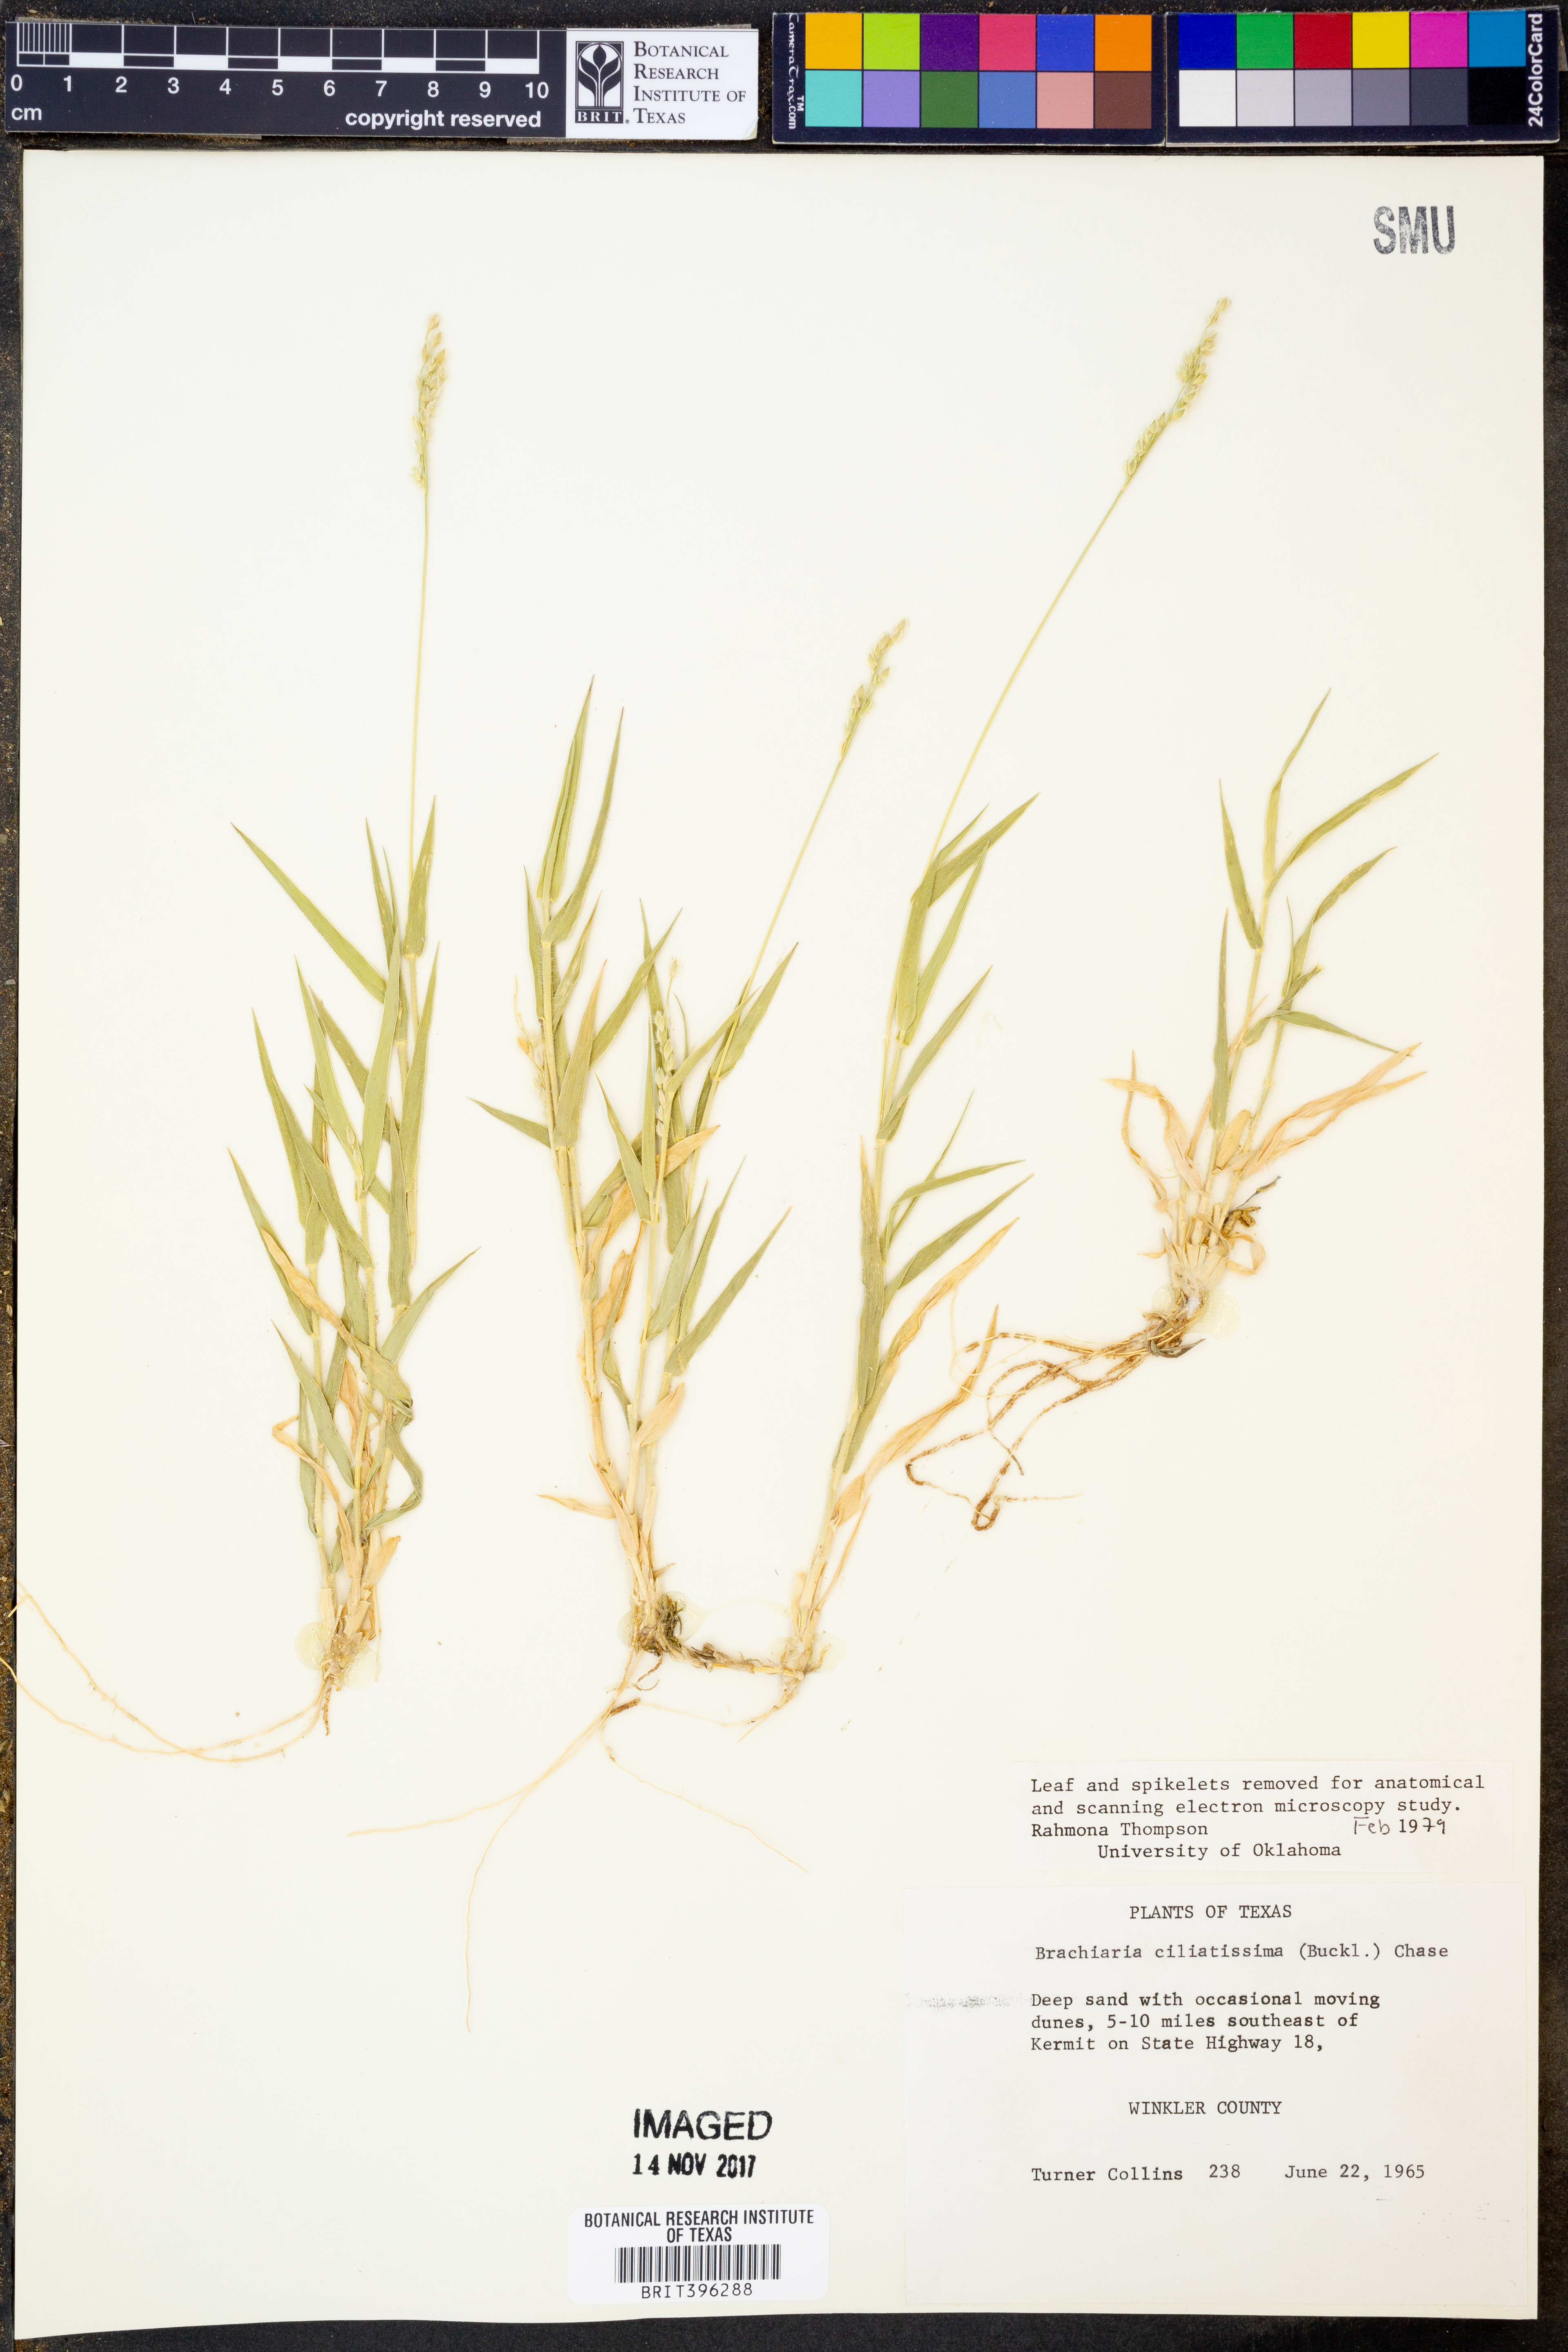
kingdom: Plantae
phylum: Tracheophyta
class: Liliopsida
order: Poales
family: Poaceae
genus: Urochloa
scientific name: Urochloa ciliatissima
